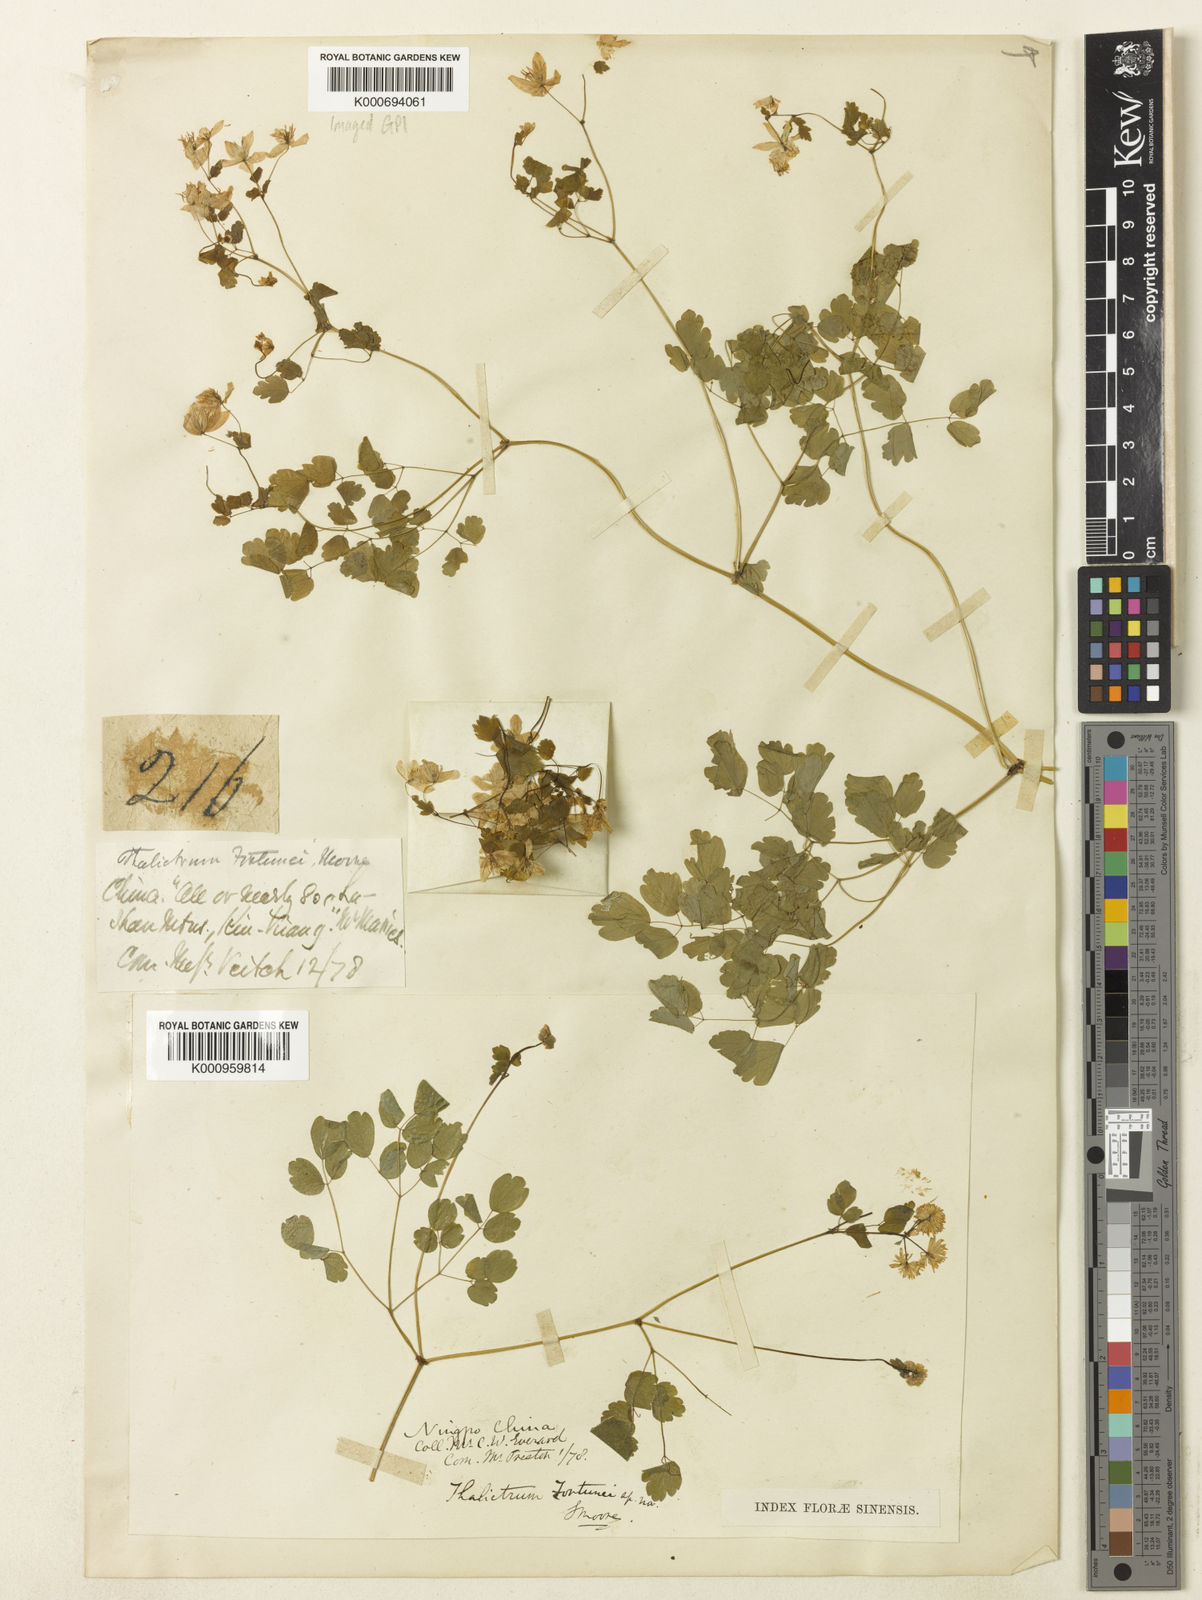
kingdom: Plantae
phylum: Tracheophyta
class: Magnoliopsida
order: Ranunculales
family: Ranunculaceae
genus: Thalictrum
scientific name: Thalictrum fortunei
